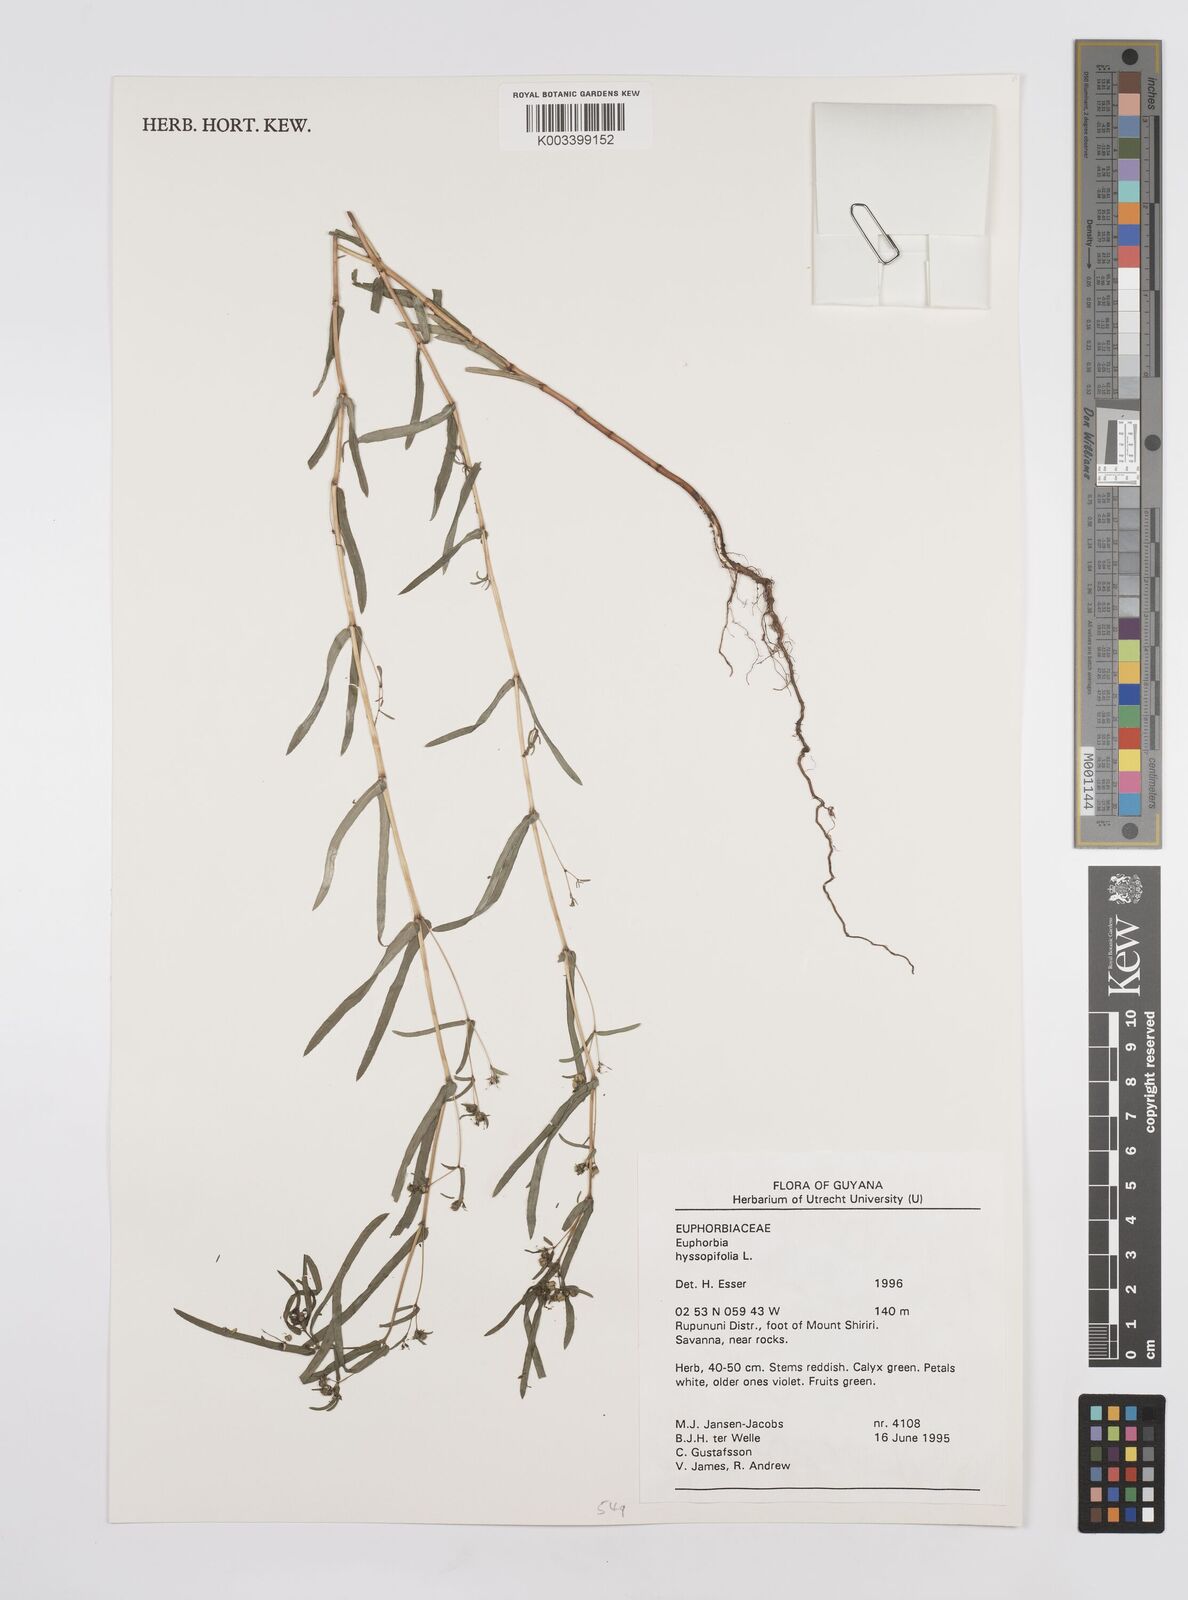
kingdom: Plantae
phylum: Tracheophyta
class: Magnoliopsida
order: Malpighiales
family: Euphorbiaceae
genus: Euphorbia
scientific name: Euphorbia hyssopifolia
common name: Hyssopleaf sandmat
